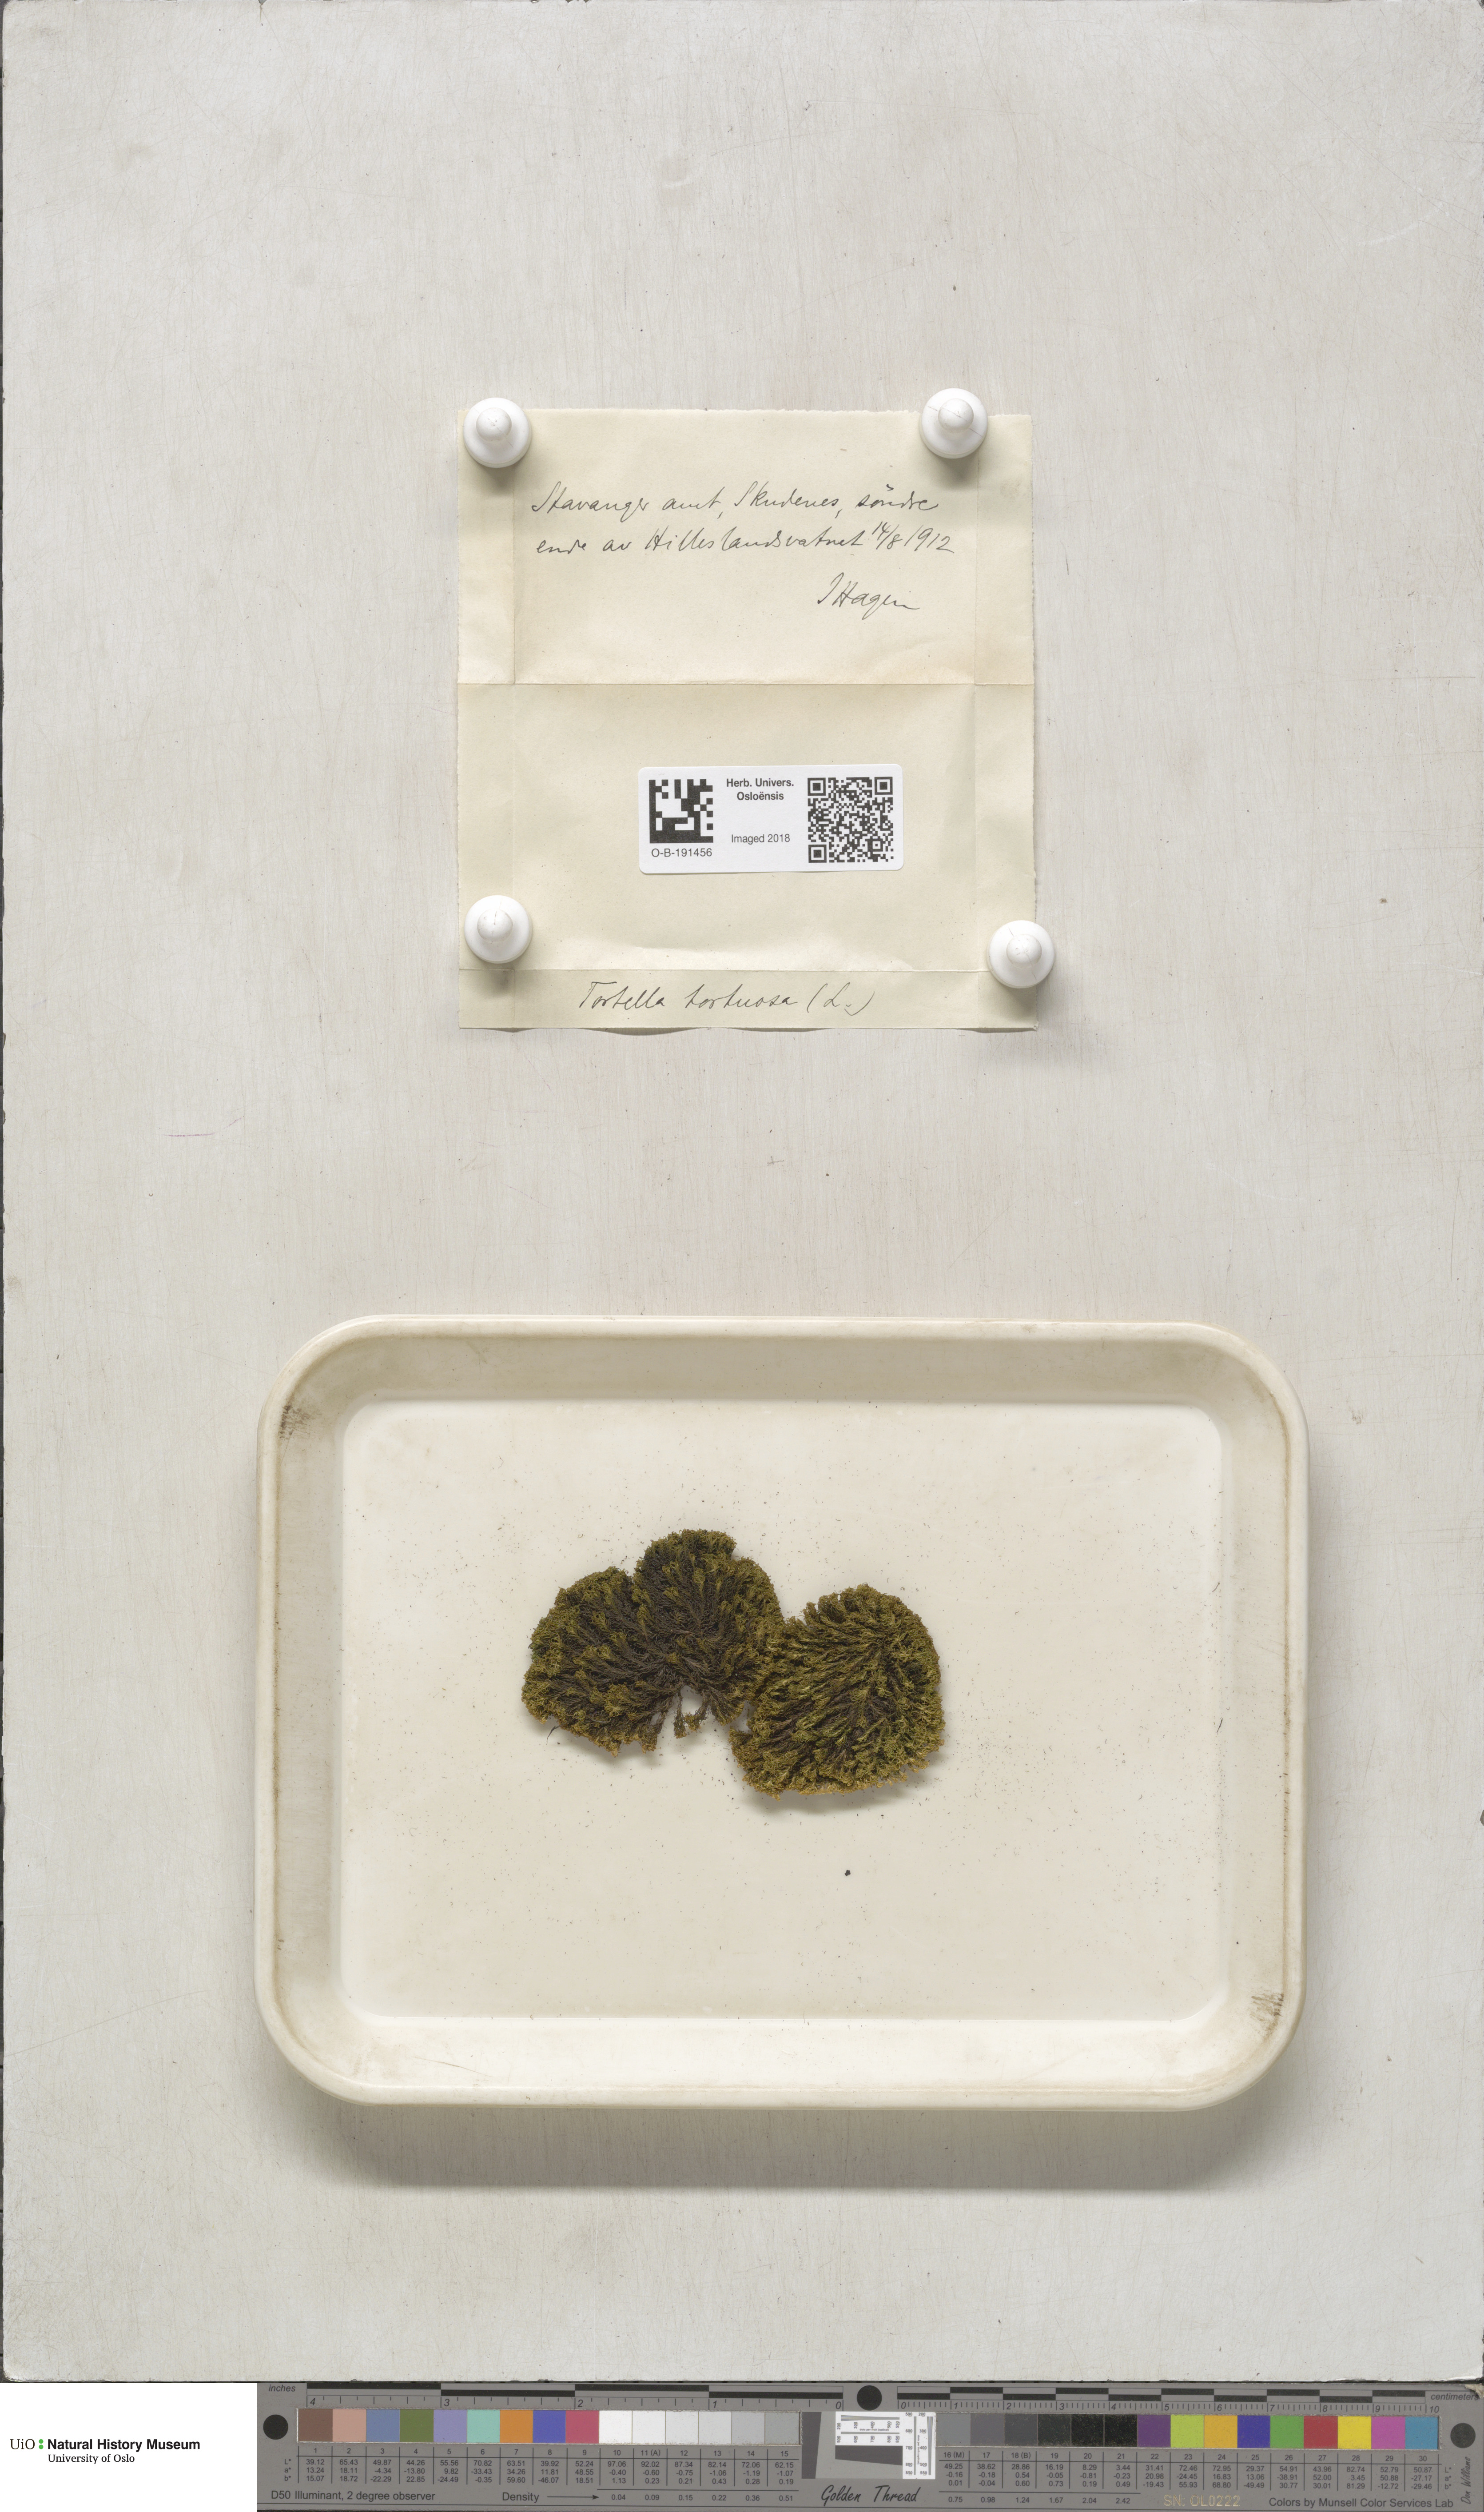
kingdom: Plantae
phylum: Bryophyta
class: Bryopsida
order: Pottiales
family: Pottiaceae
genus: Tortella
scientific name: Tortella tortuosa
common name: Frizzled crisp moss
